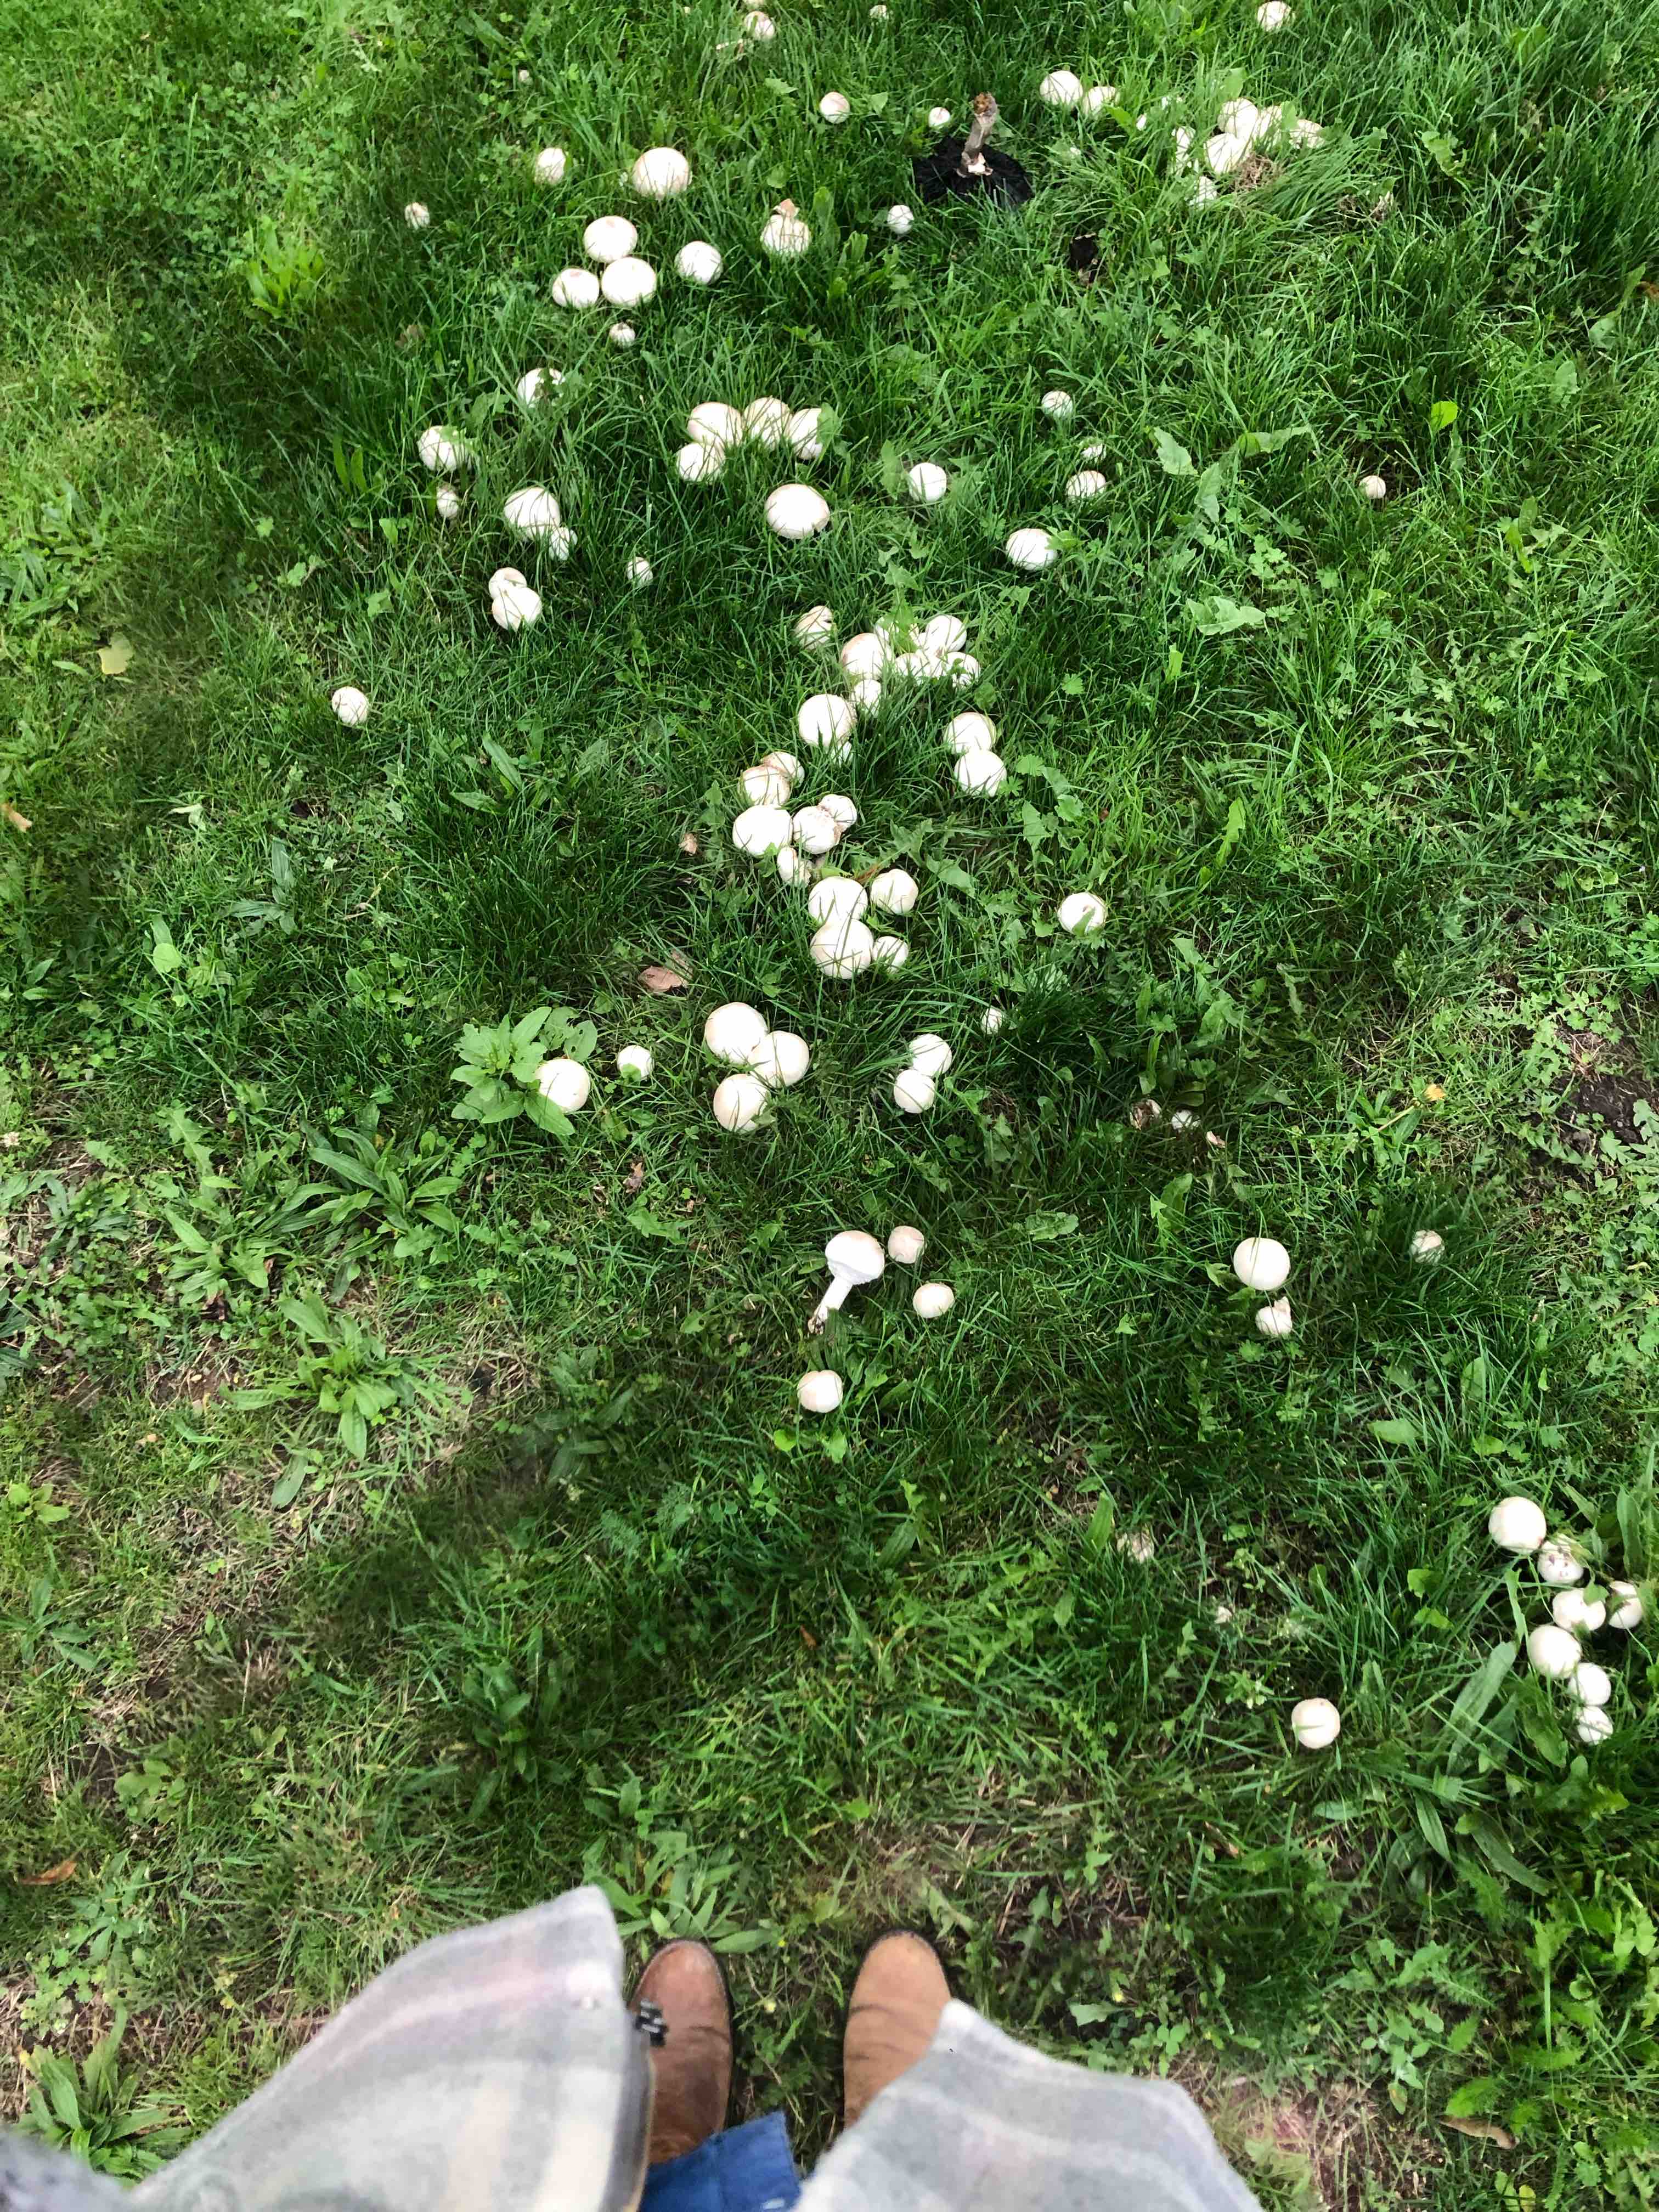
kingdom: Fungi
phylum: Basidiomycota
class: Agaricomycetes
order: Agaricales
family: Agaricaceae
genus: Agaricus
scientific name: Agaricus xanthodermus
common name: karbol-champignon
